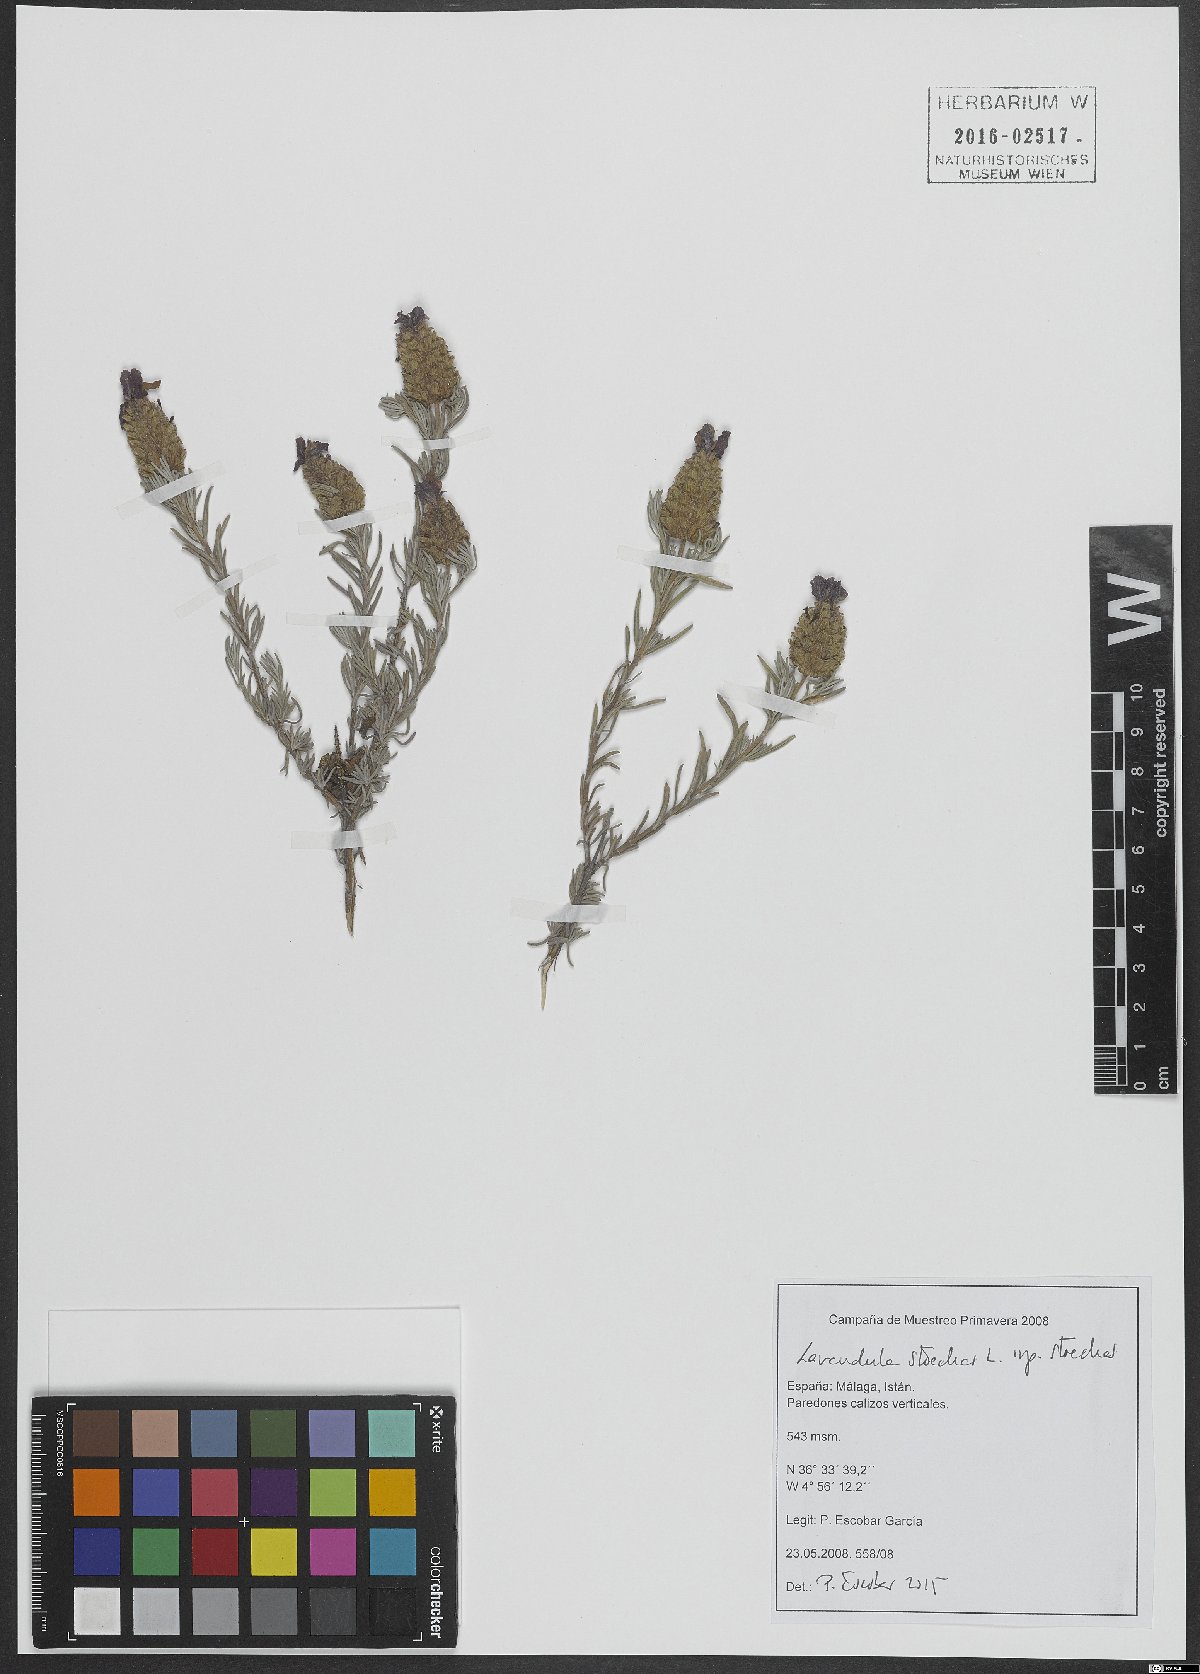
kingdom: Plantae
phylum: Tracheophyta
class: Magnoliopsida
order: Lamiales
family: Lamiaceae
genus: Lavandula
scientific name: Lavandula stoechas
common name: French lavender
